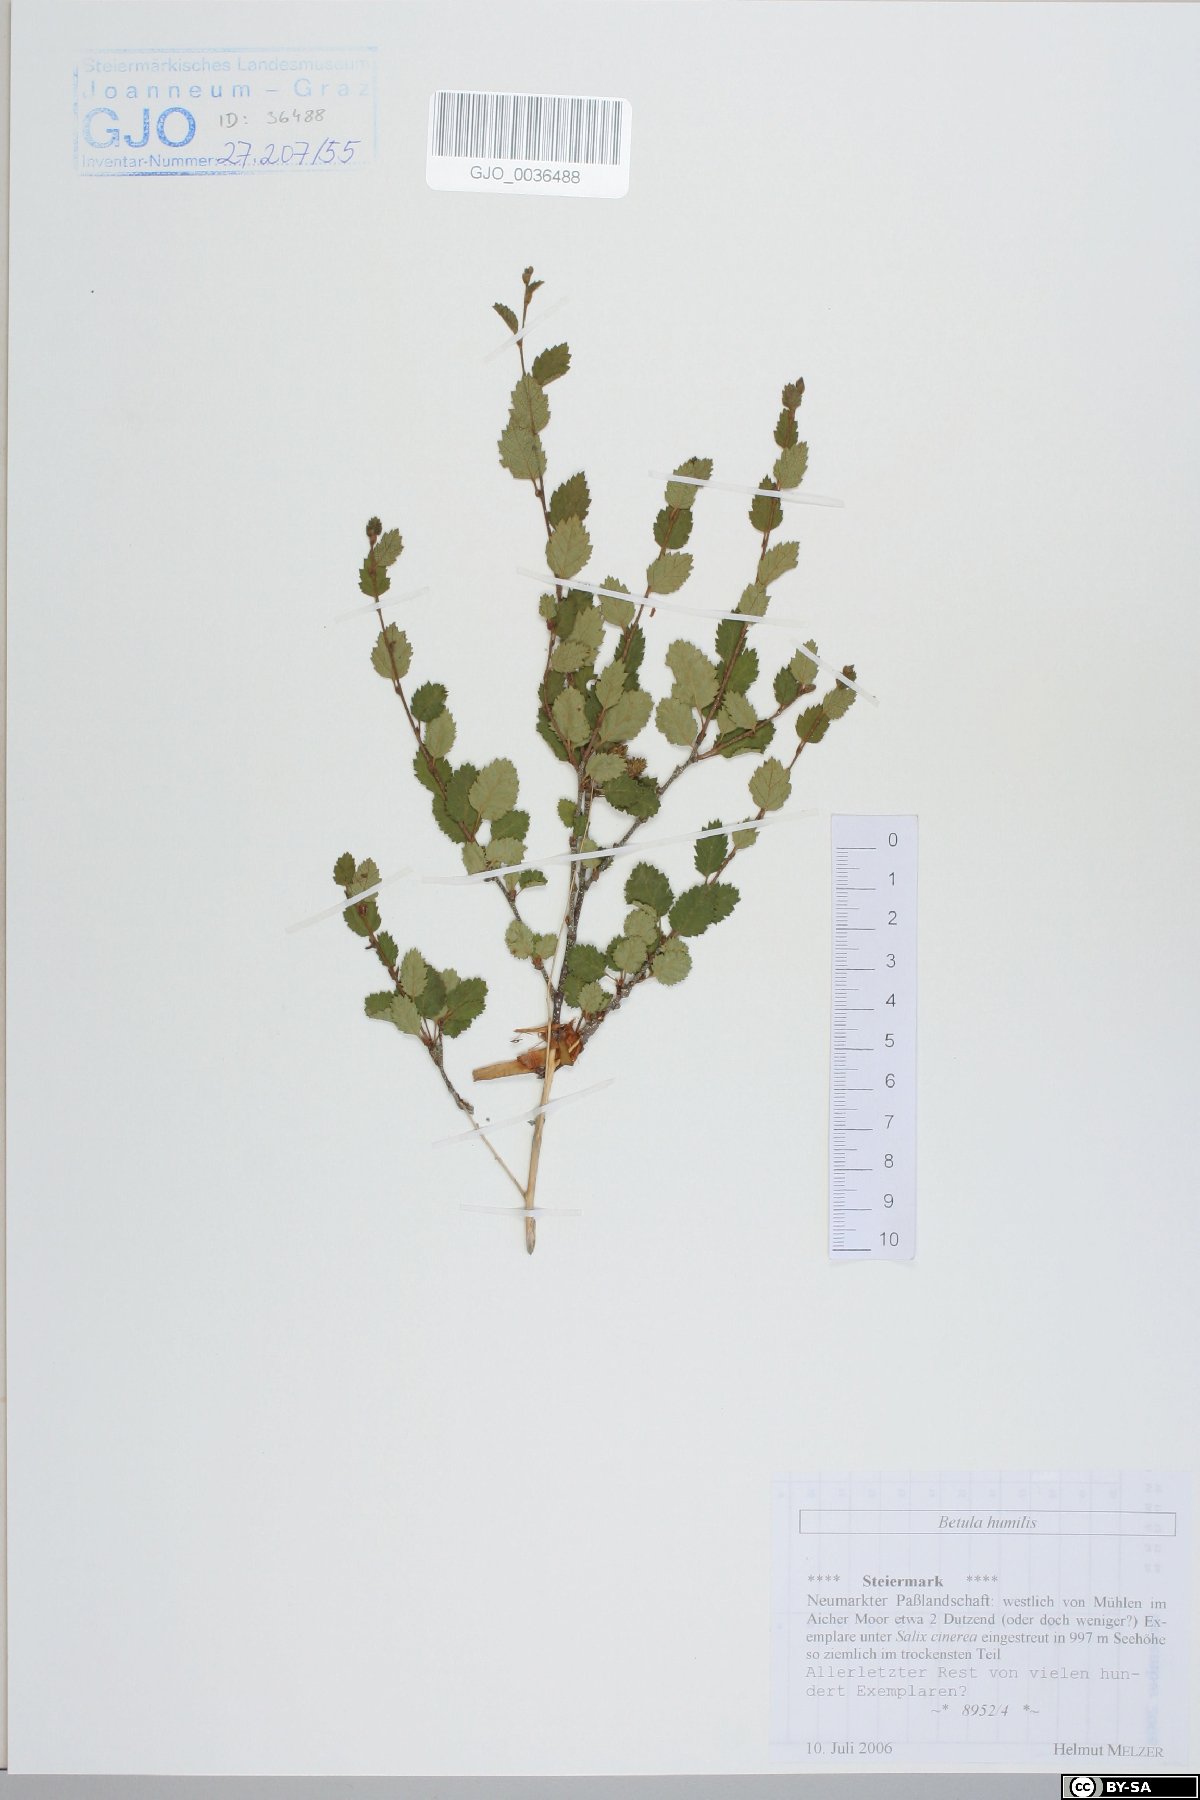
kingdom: Plantae
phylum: Tracheophyta
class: Magnoliopsida
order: Fagales
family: Betulaceae
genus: Betula
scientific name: Betula humilis
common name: Shrubby birch
